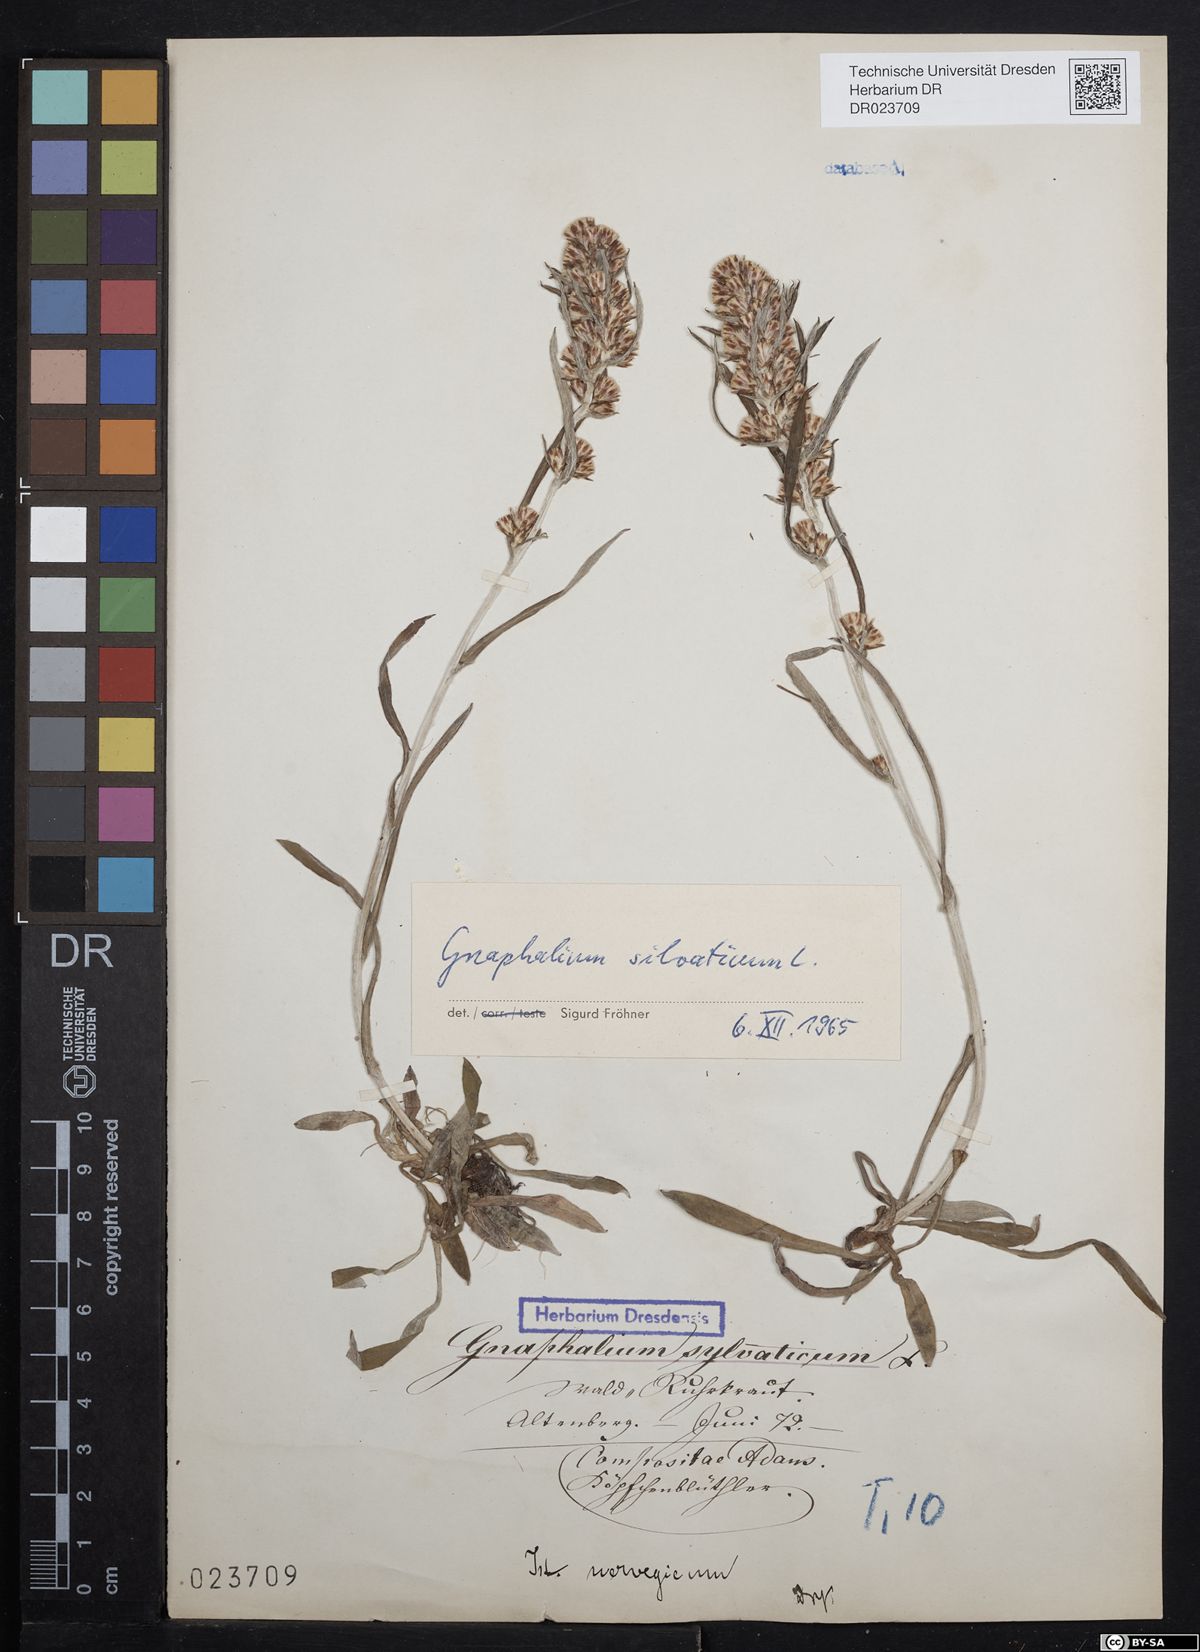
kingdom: Plantae
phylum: Tracheophyta
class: Magnoliopsida
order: Asterales
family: Asteraceae
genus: Omalotheca
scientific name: Omalotheca sylvatica
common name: Heath cudweed
